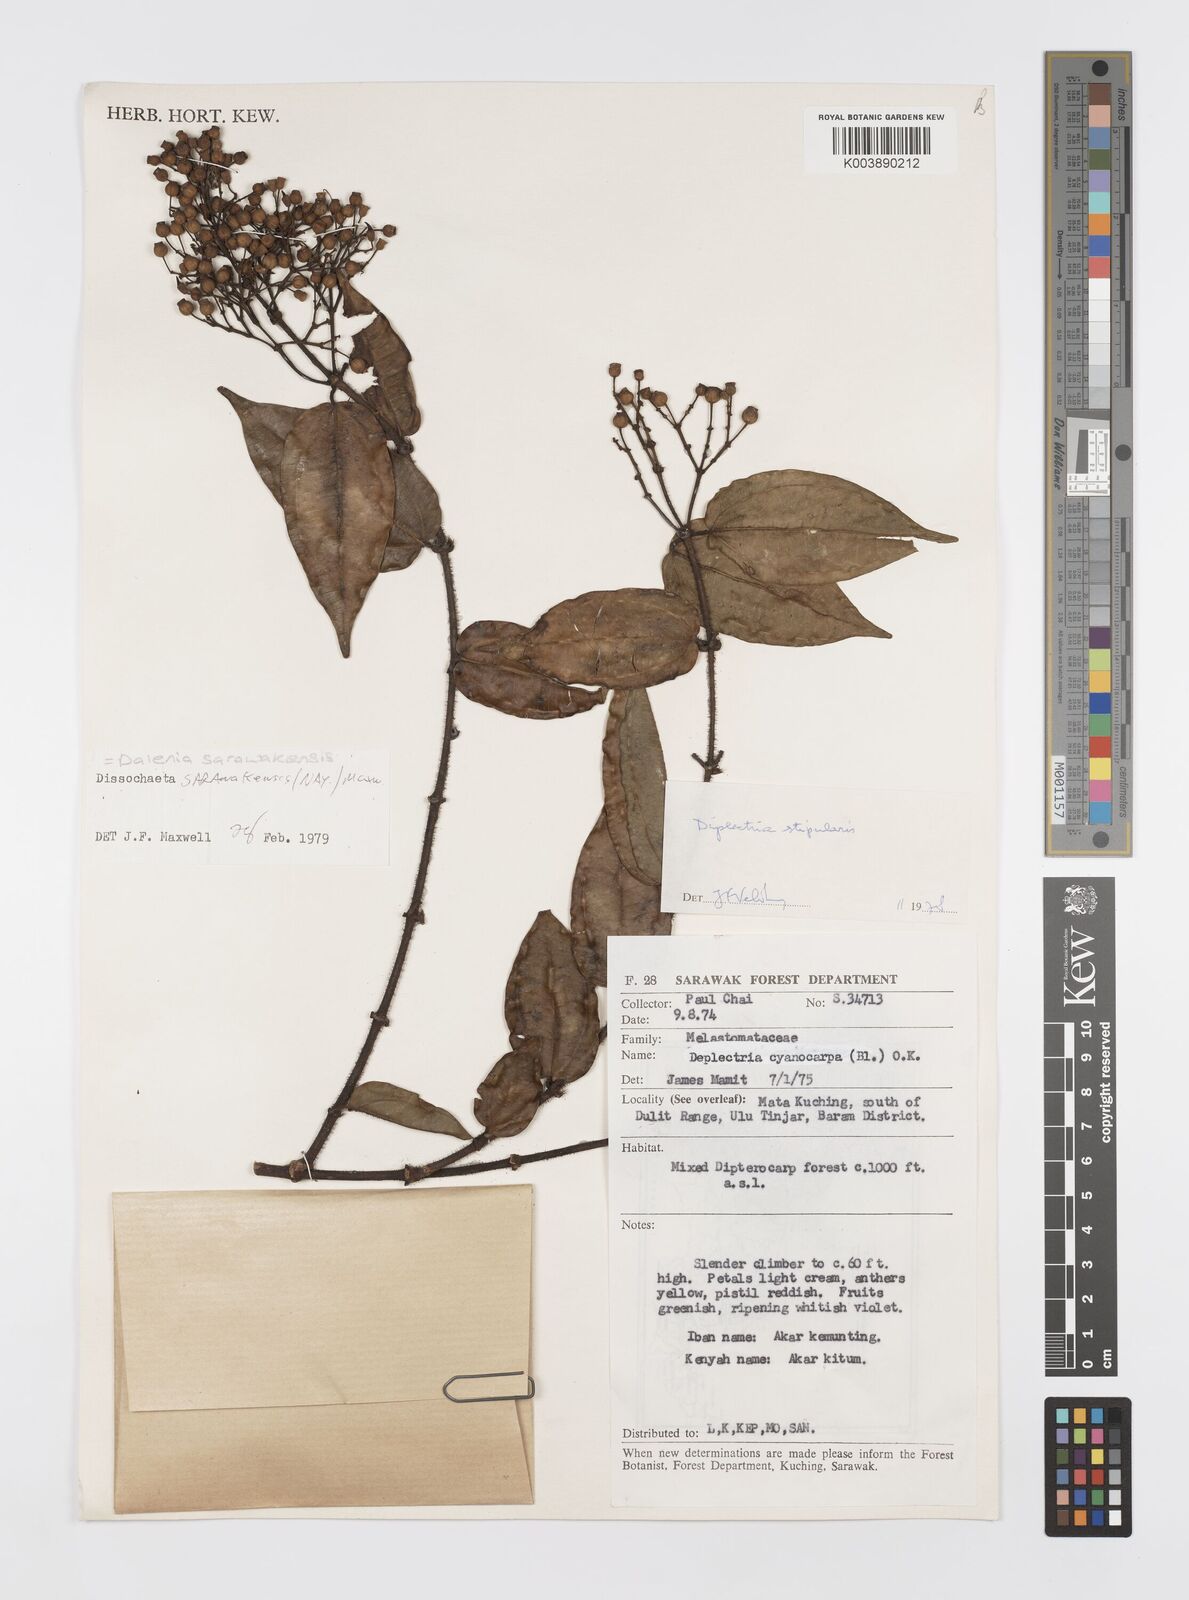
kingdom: Plantae
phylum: Tracheophyta
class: Magnoliopsida
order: Myrtales
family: Melastomataceae
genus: Dalenia
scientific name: Dalenia
